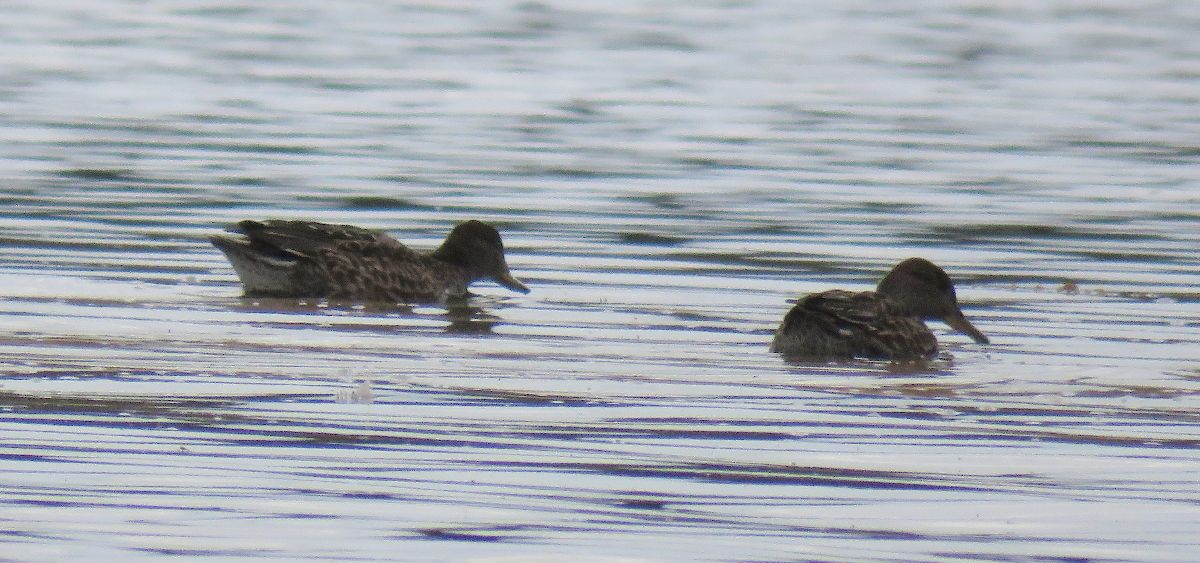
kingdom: Animalia
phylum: Chordata
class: Aves
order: Anseriformes
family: Anatidae
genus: Anas
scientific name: Anas crecca
